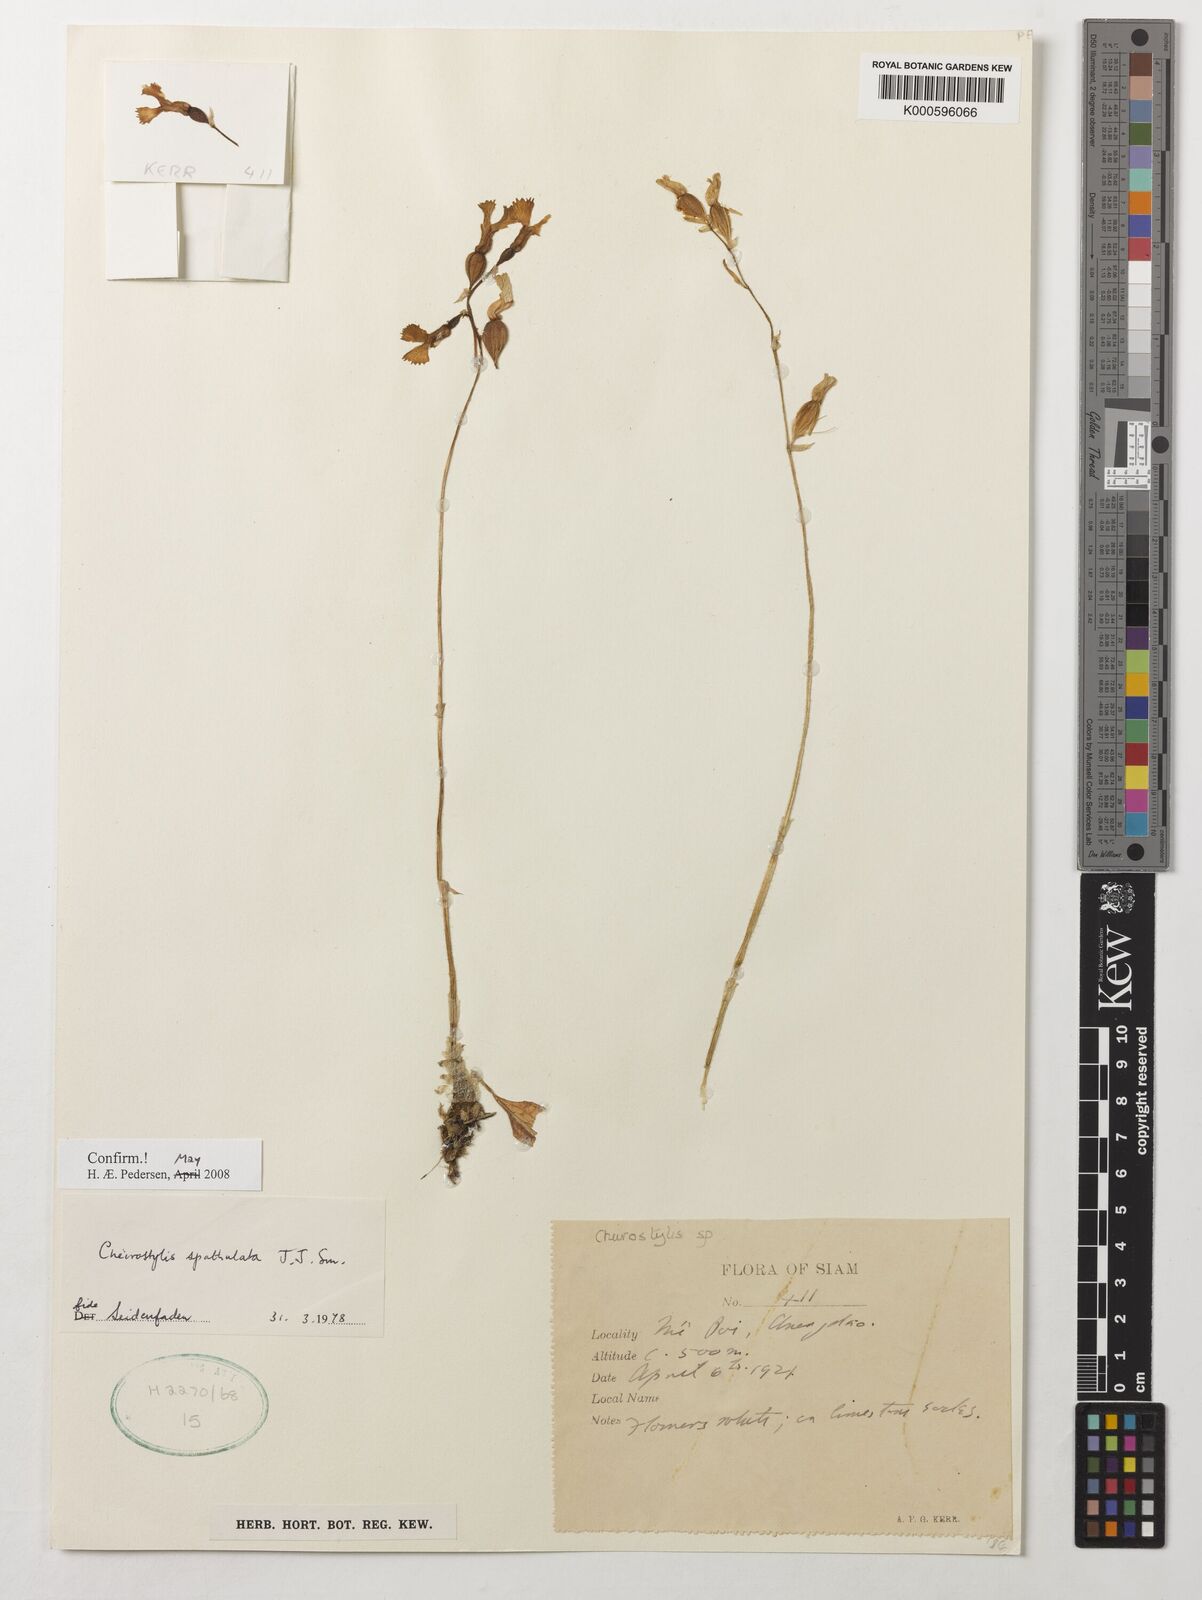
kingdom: Plantae
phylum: Tracheophyta
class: Liliopsida
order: Asparagales
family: Orchidaceae
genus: Cheirostylis
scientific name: Cheirostylis spathulata
